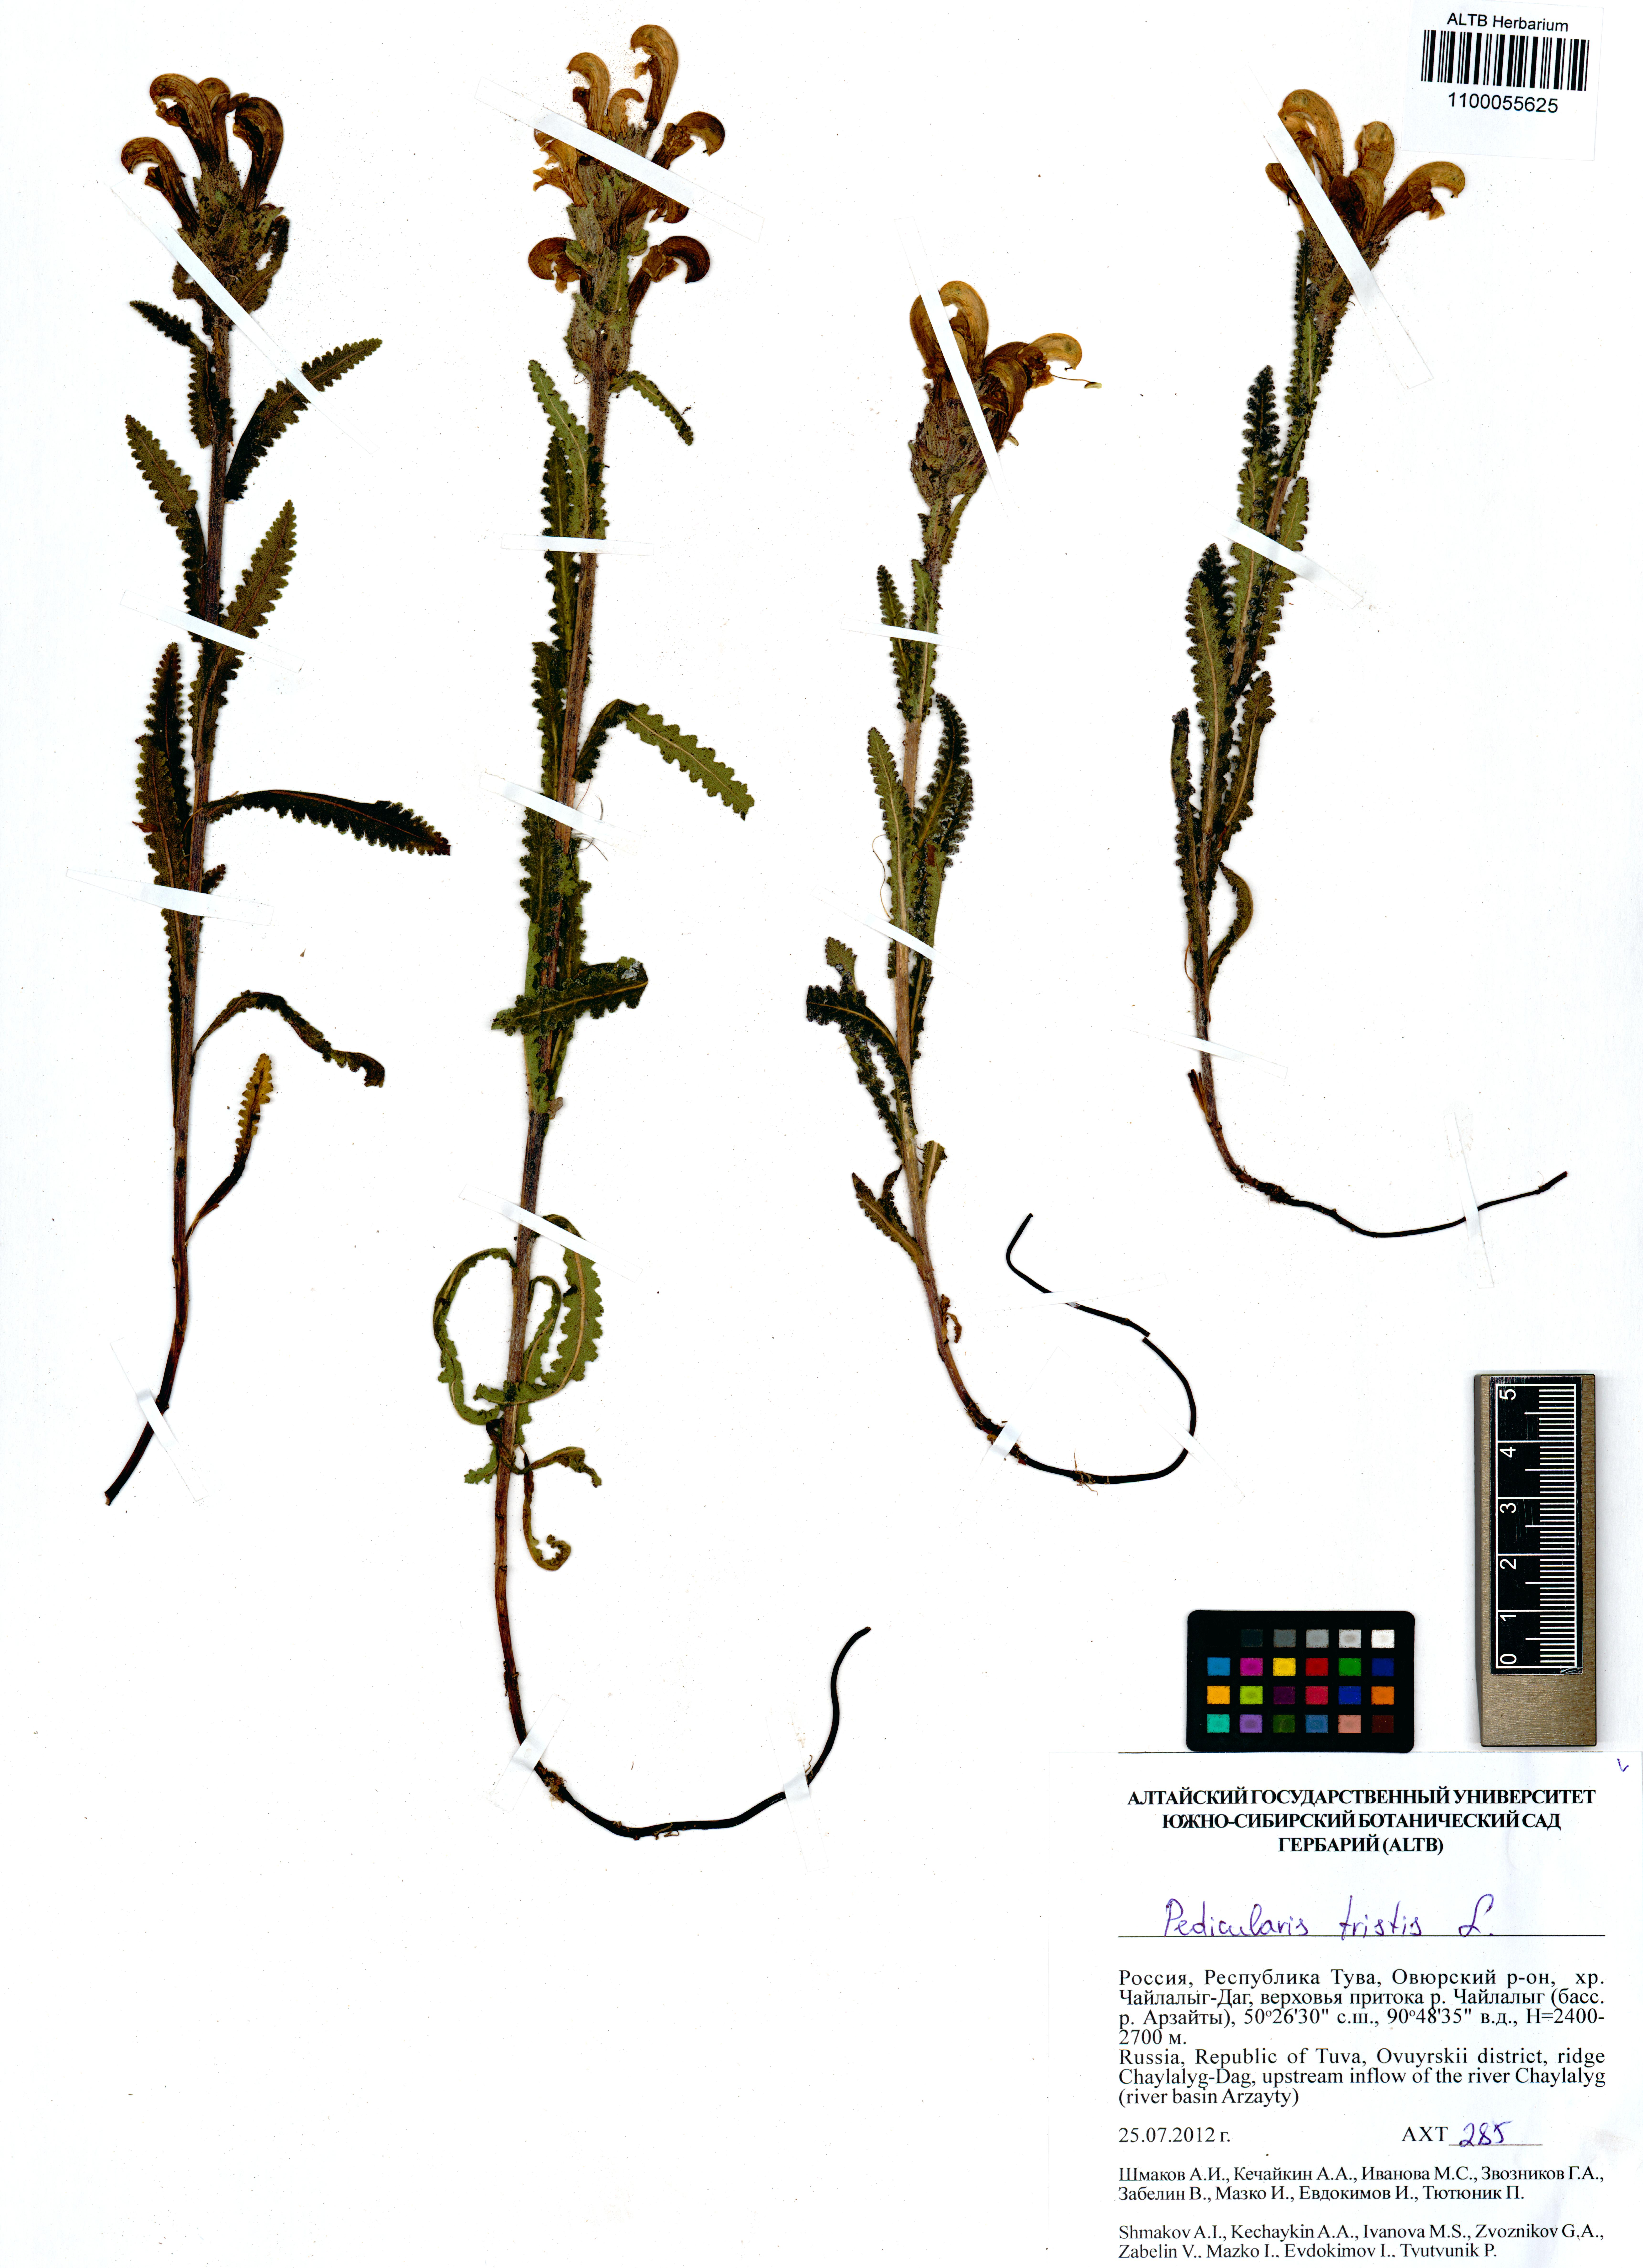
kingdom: Plantae
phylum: Tracheophyta
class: Magnoliopsida
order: Lamiales
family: Orobanchaceae
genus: Pedicularis
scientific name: Pedicularis tristis
